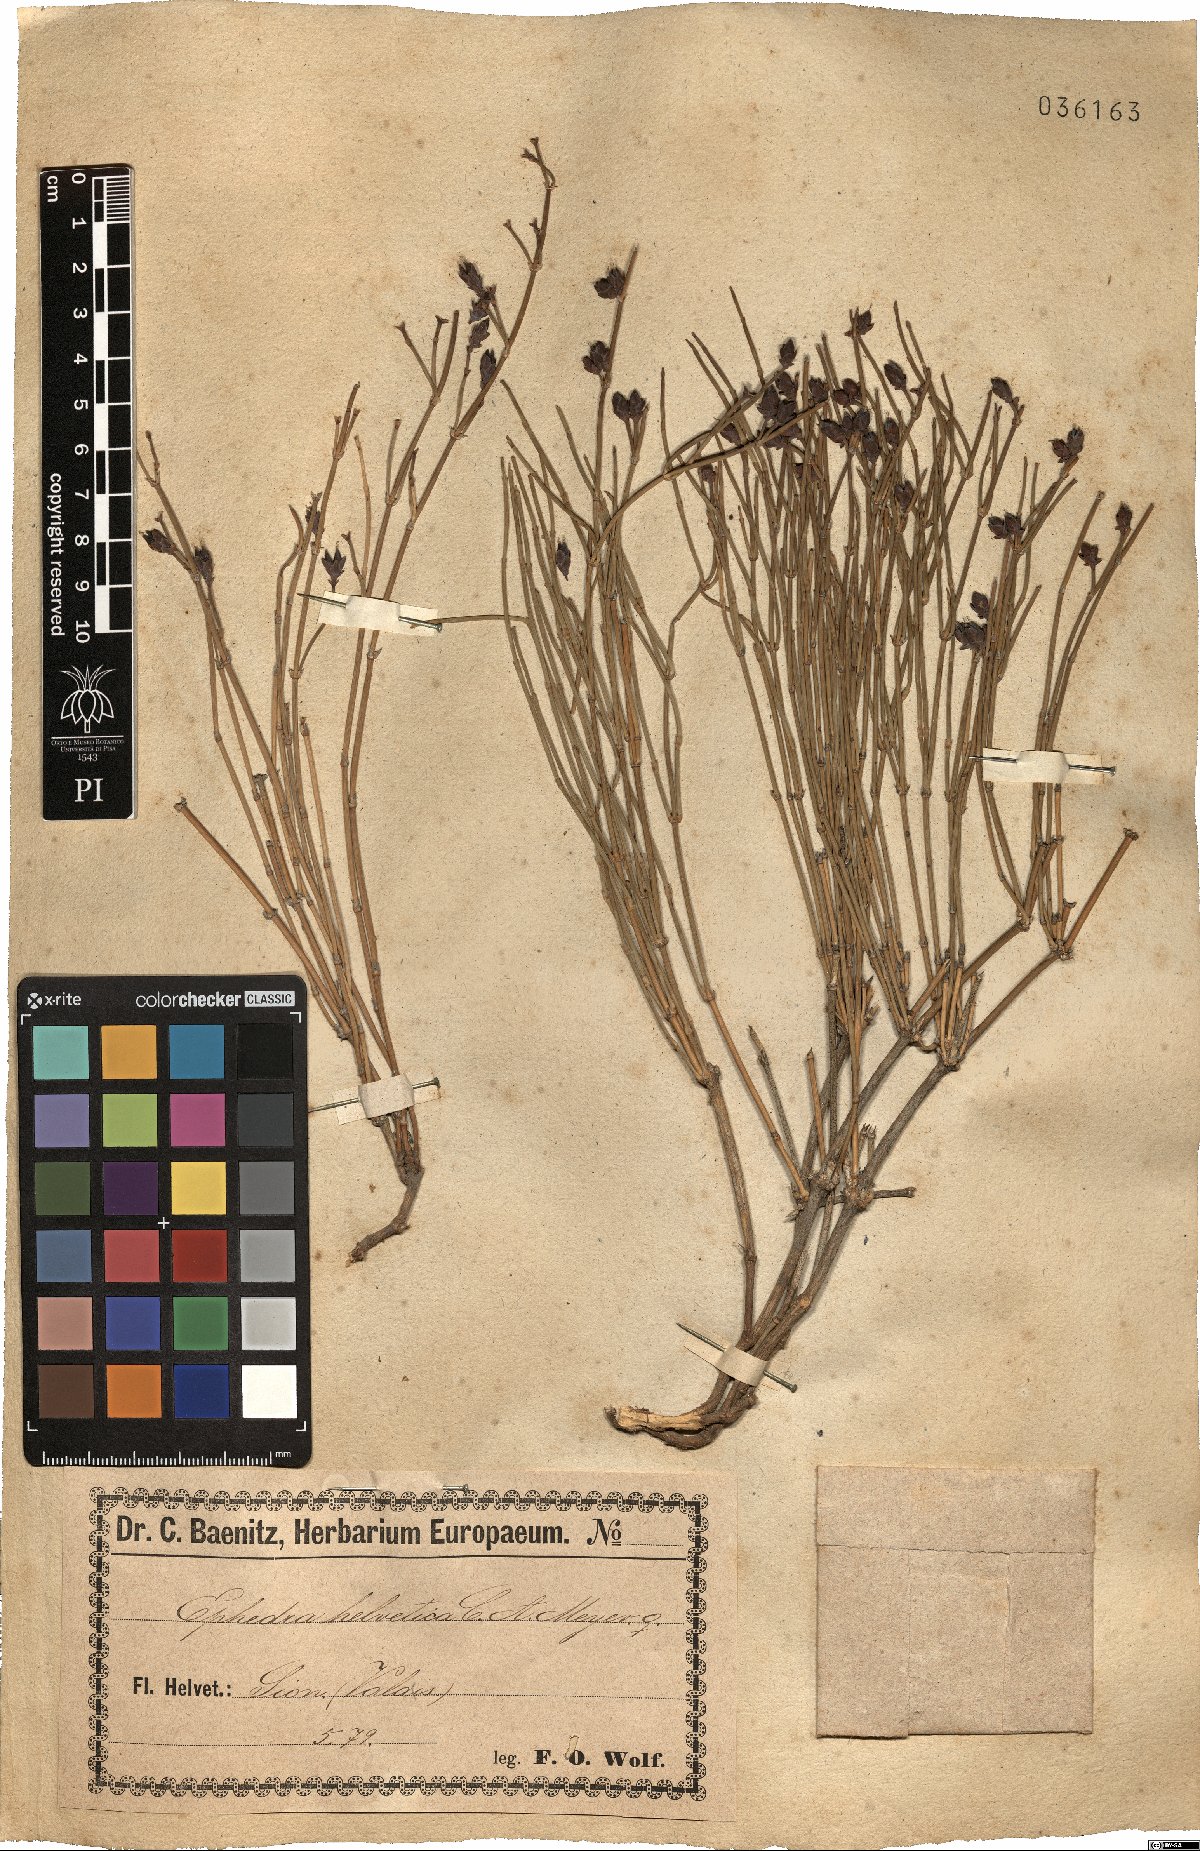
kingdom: Plantae
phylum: Tracheophyta
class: Gnetopsida
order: Ephedrales
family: Ephedraceae
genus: Ephedra
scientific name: Ephedra distachya
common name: Sea grape
